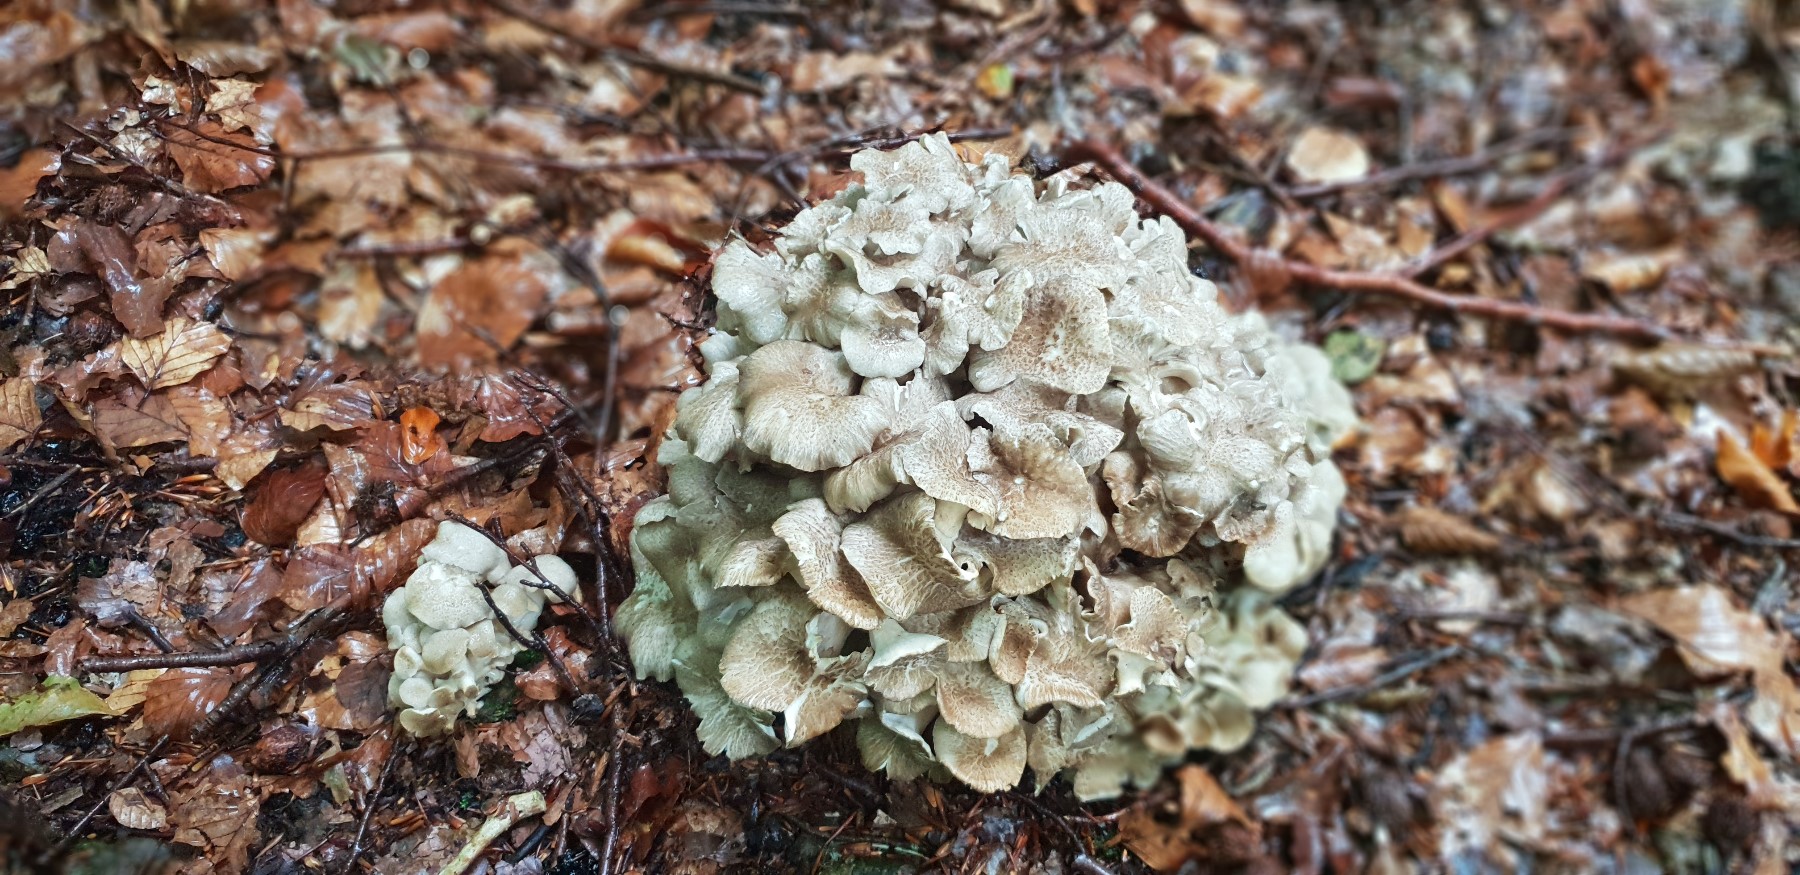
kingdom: Fungi
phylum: Basidiomycota
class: Agaricomycetes
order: Polyporales
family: Polyporaceae
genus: Polyporus
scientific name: Polyporus umbellatus
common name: skærmformet stilkporesvamp
